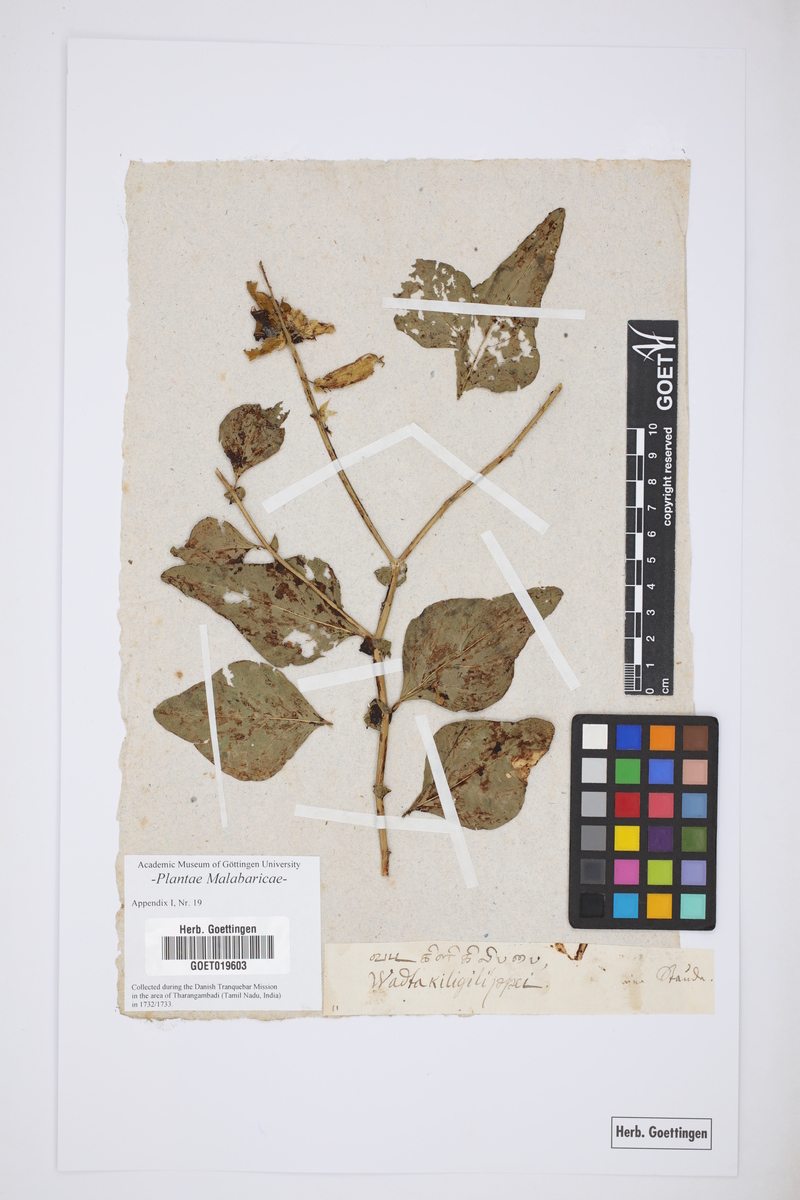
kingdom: Plantae
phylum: Tracheophyta
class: Magnoliopsida
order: Fabales
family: Fabaceae
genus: Crotalaria
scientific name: Crotalaria verrucosa
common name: Blue rattlesnake
